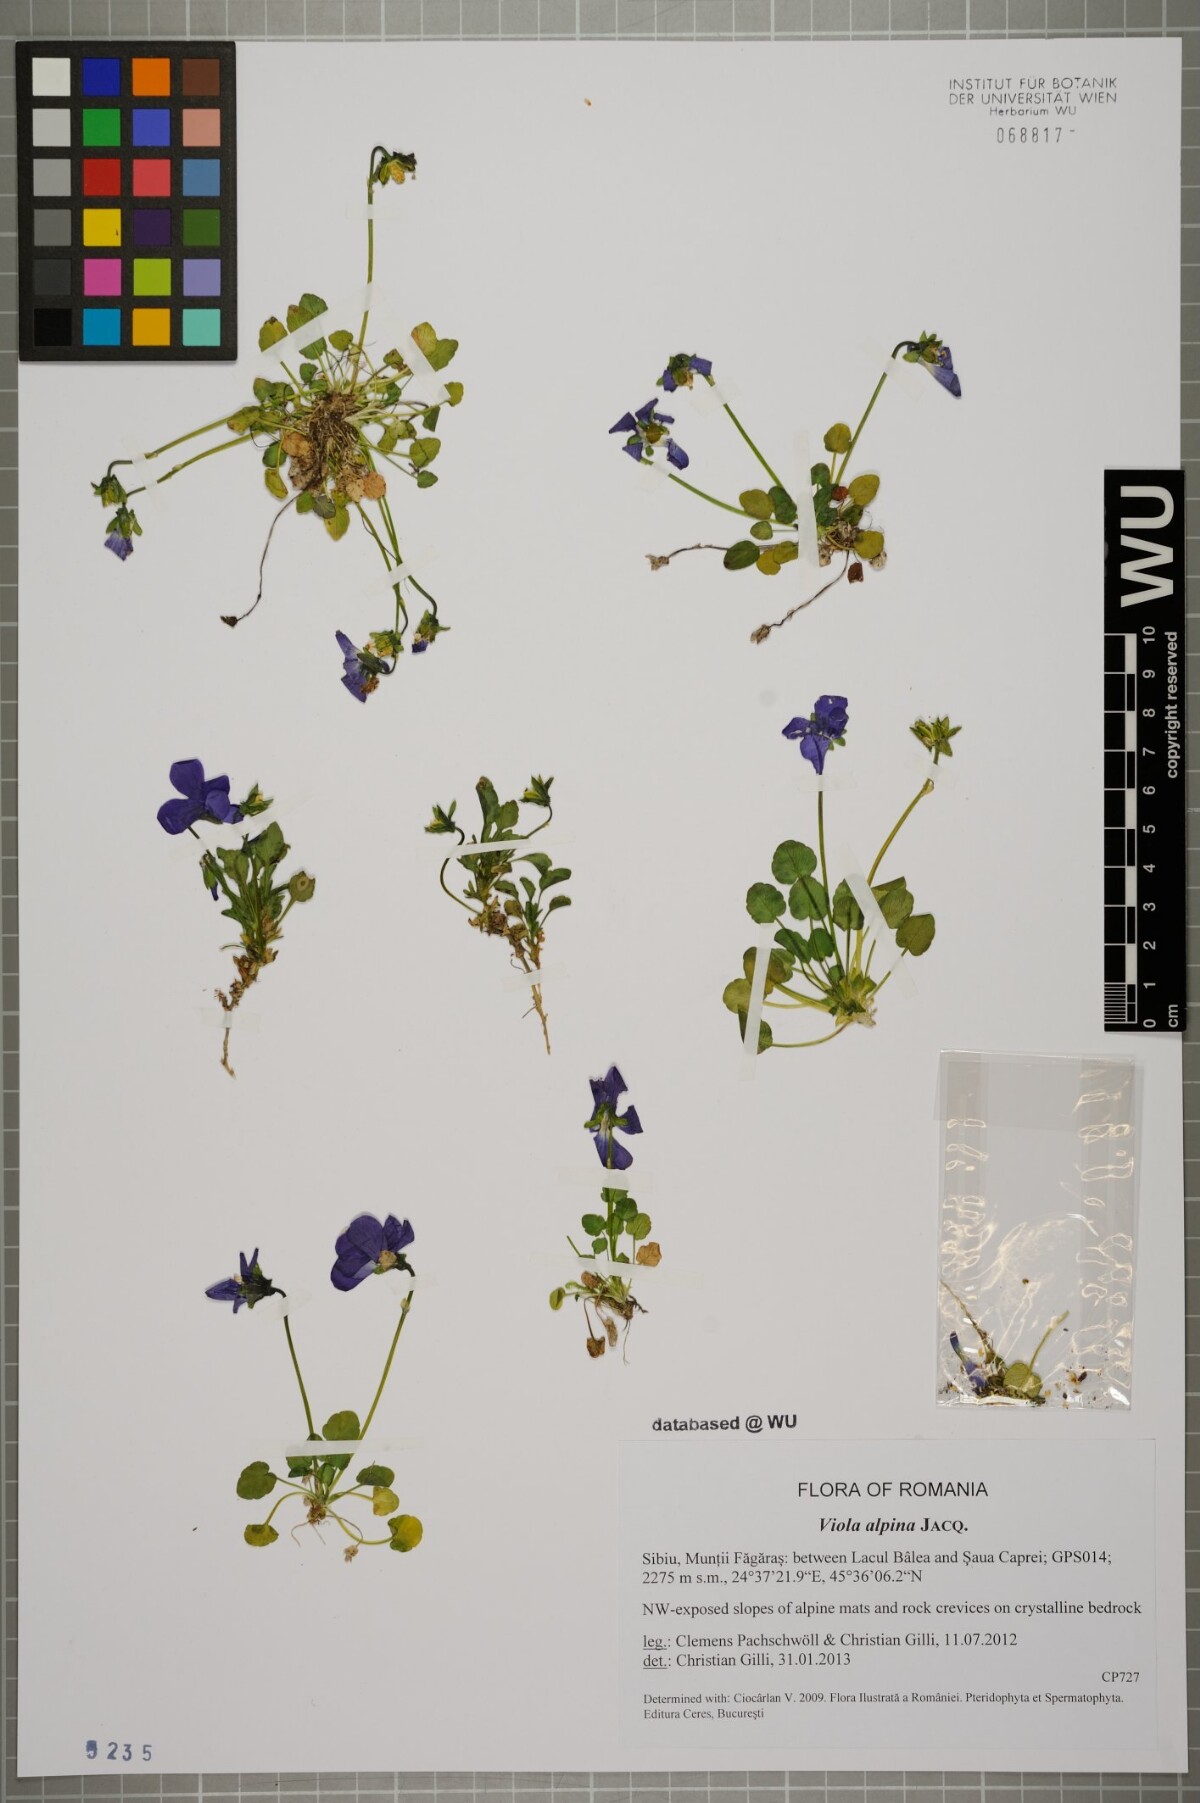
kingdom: Plantae
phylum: Tracheophyta
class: Magnoliopsida
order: Malpighiales
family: Violaceae
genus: Viola
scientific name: Viola alpina
